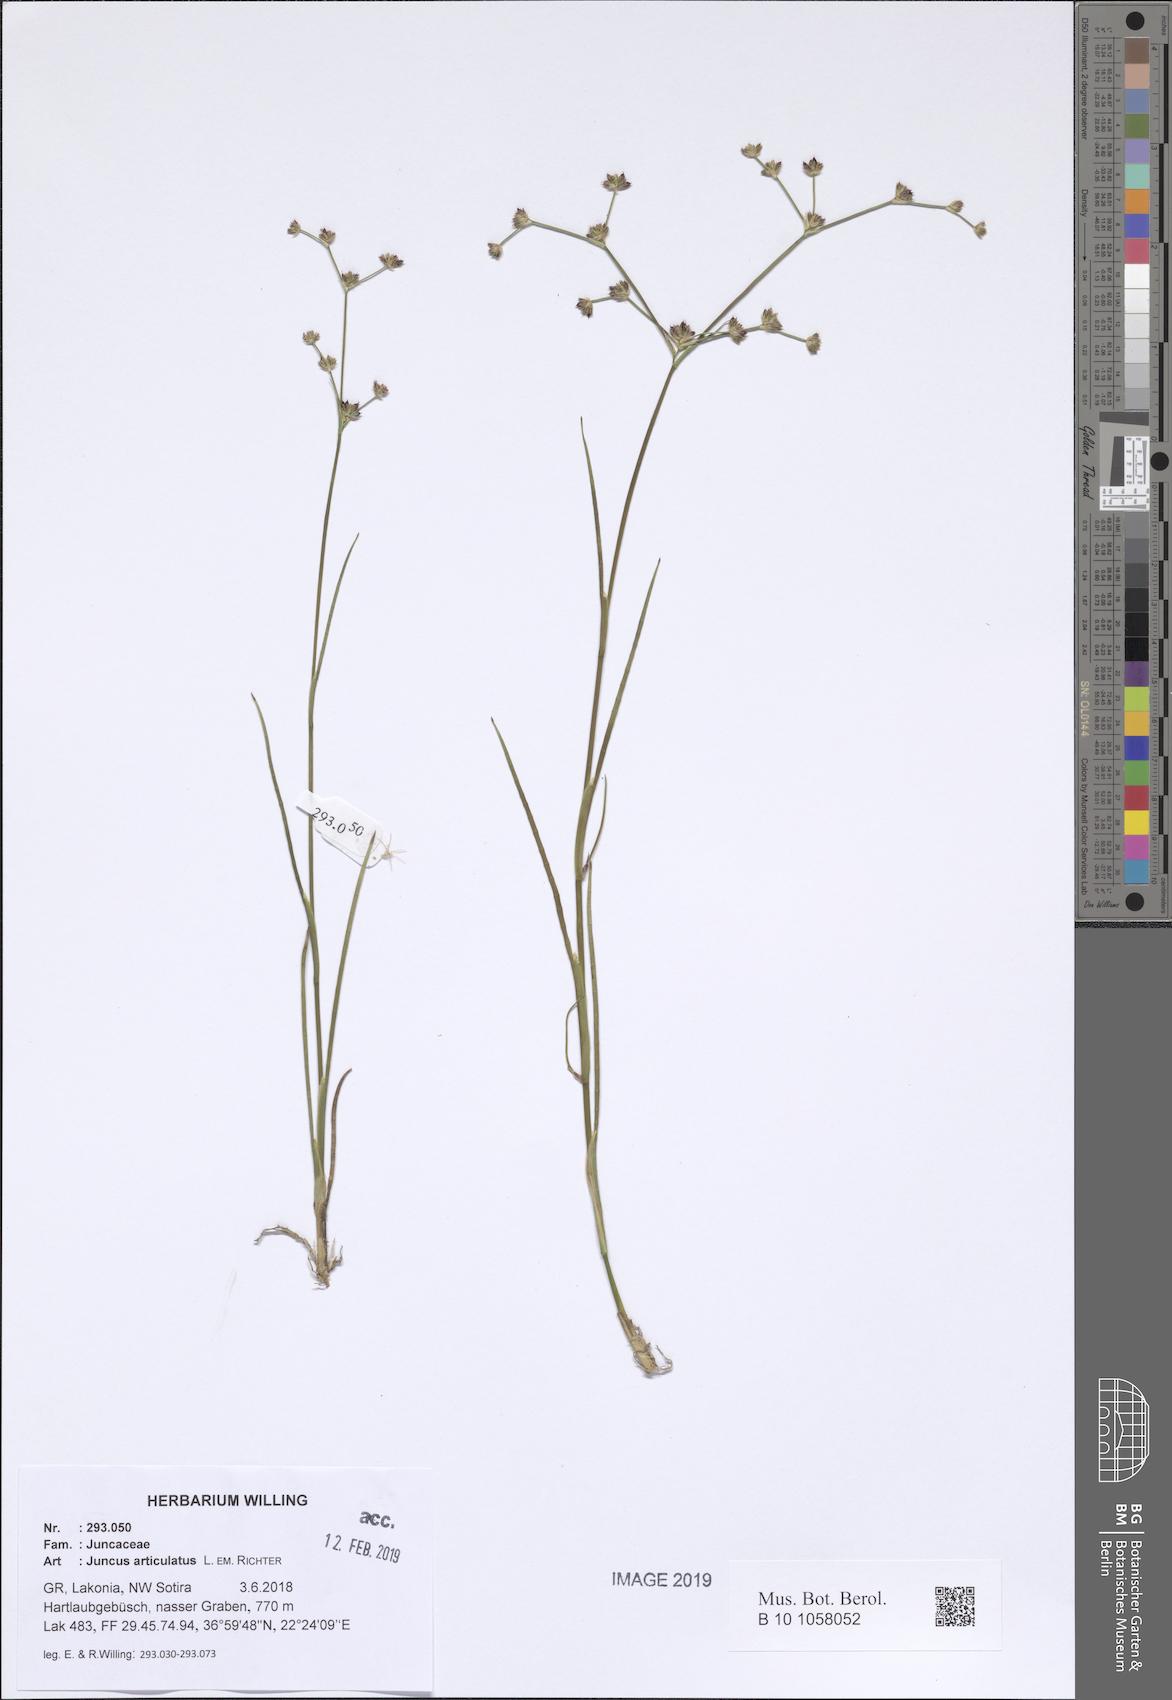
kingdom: Plantae
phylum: Tracheophyta
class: Liliopsida
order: Poales
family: Juncaceae
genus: Juncus
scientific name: Juncus articulatus
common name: Jointed rush
